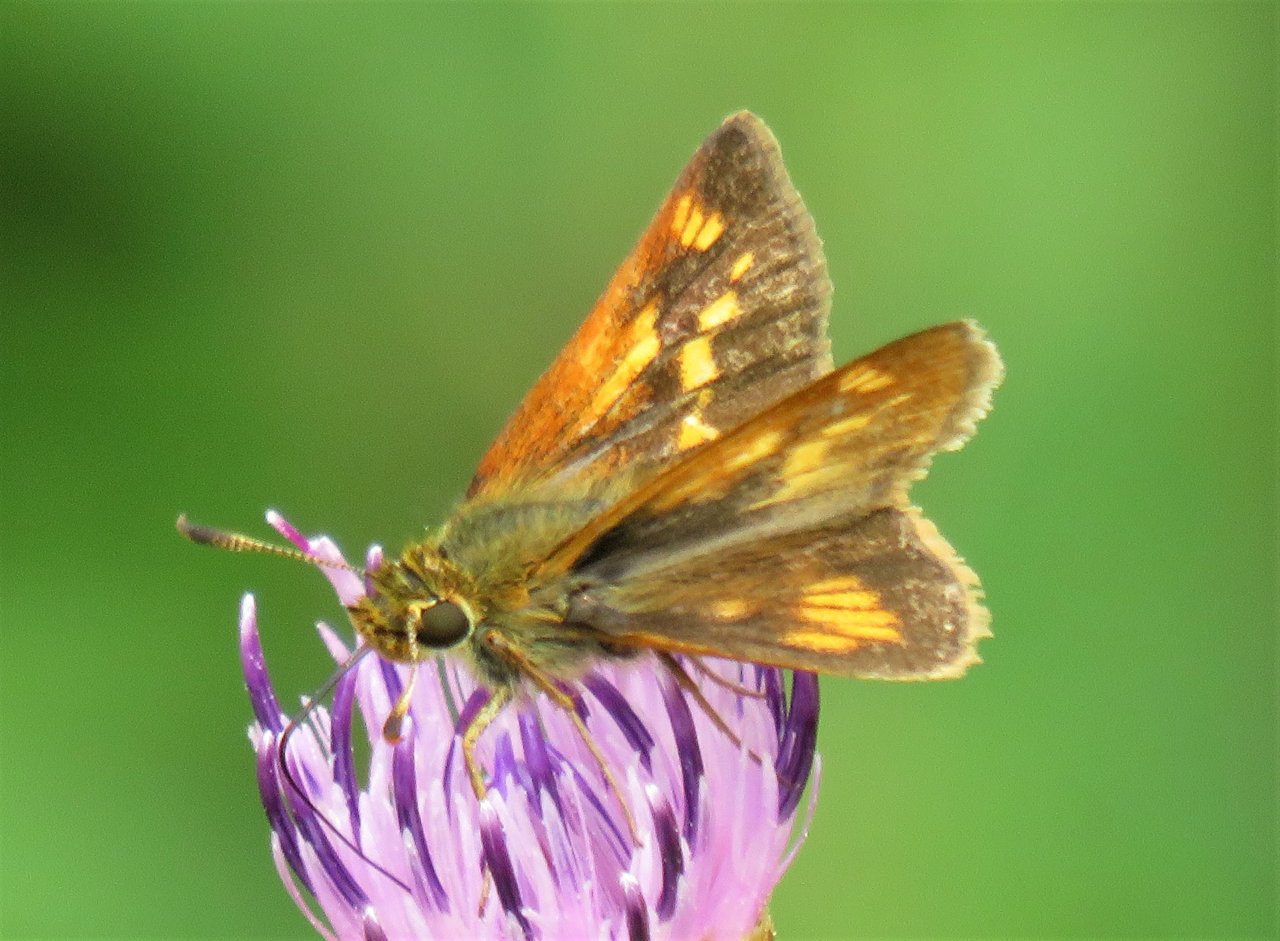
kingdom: Animalia
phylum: Arthropoda
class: Insecta
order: Lepidoptera
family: Hesperiidae
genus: Polites
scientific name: Polites
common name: Long Dash Skipper
